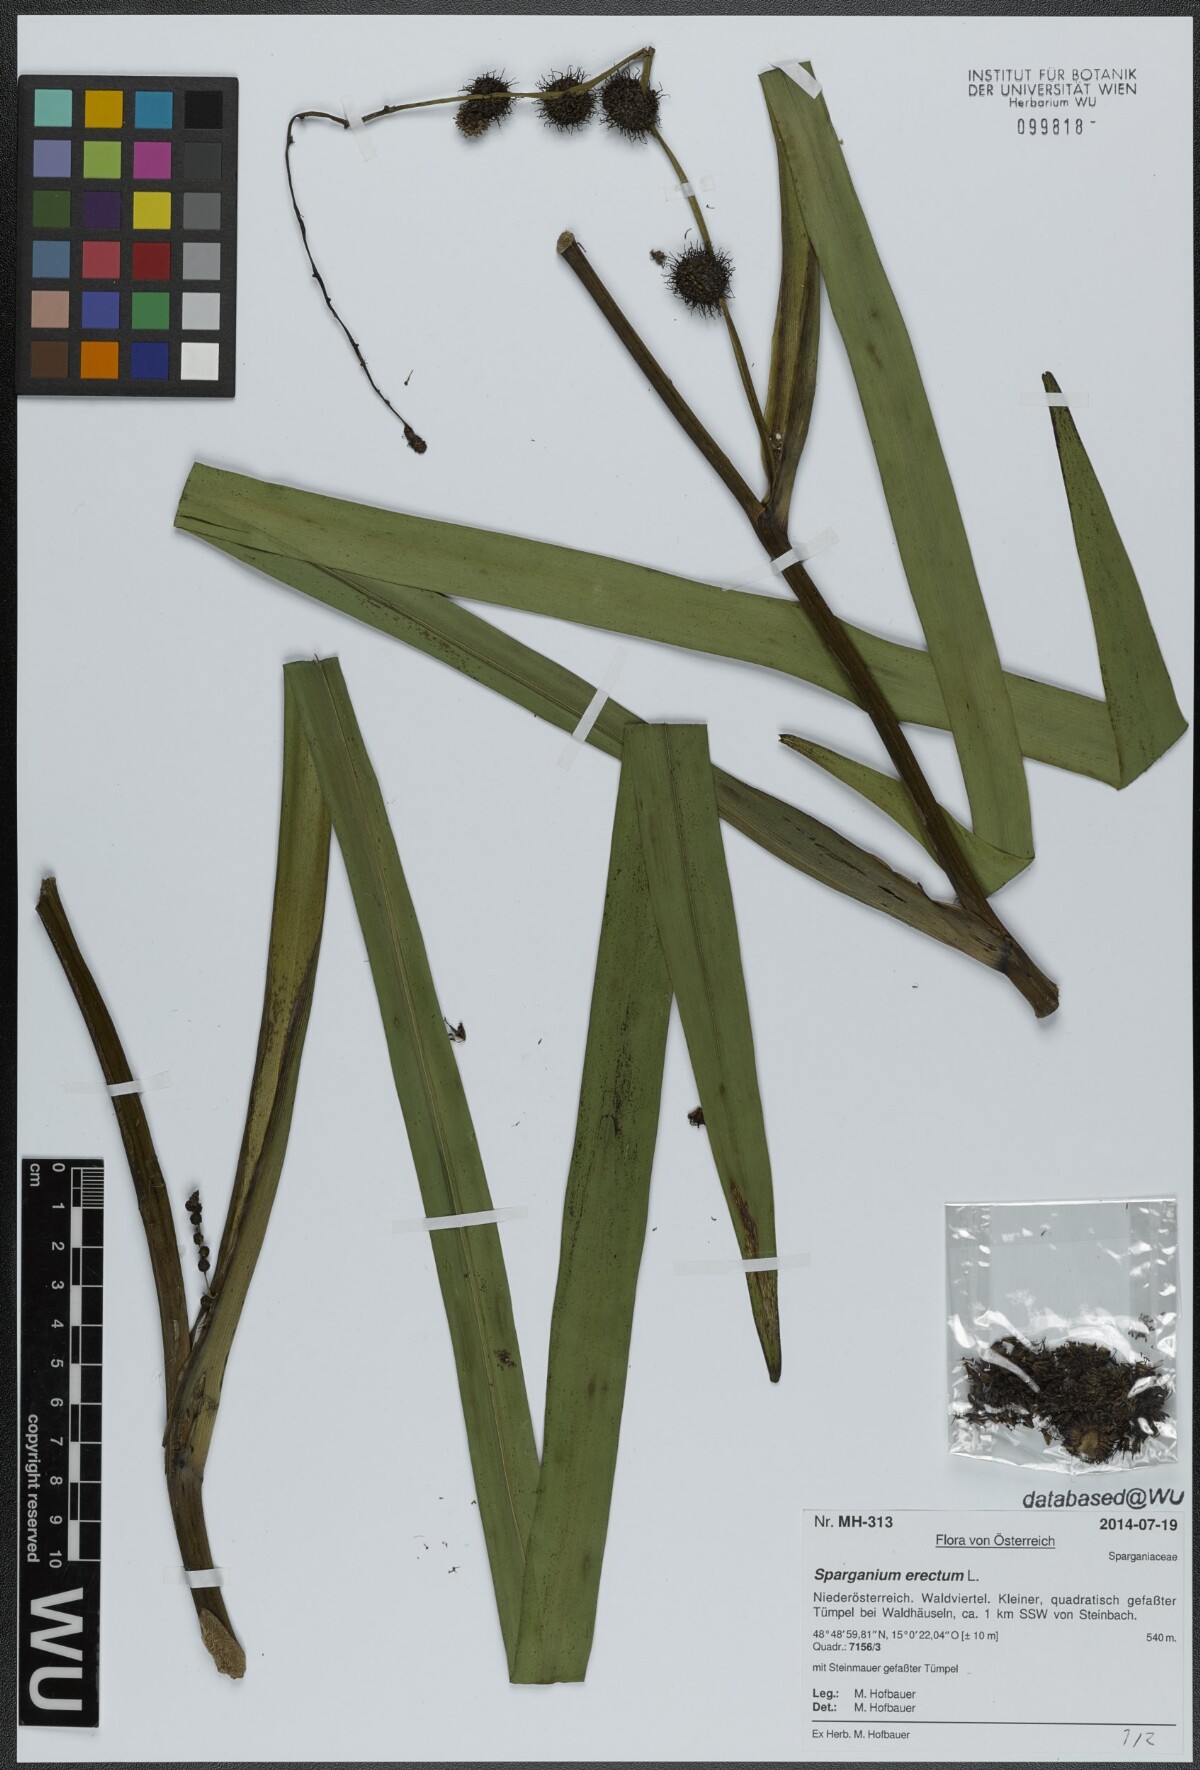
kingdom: Plantae
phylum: Tracheophyta
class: Liliopsida
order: Poales
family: Typhaceae
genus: Sparganium
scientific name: Sparganium erectum
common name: Branched bur-reed
